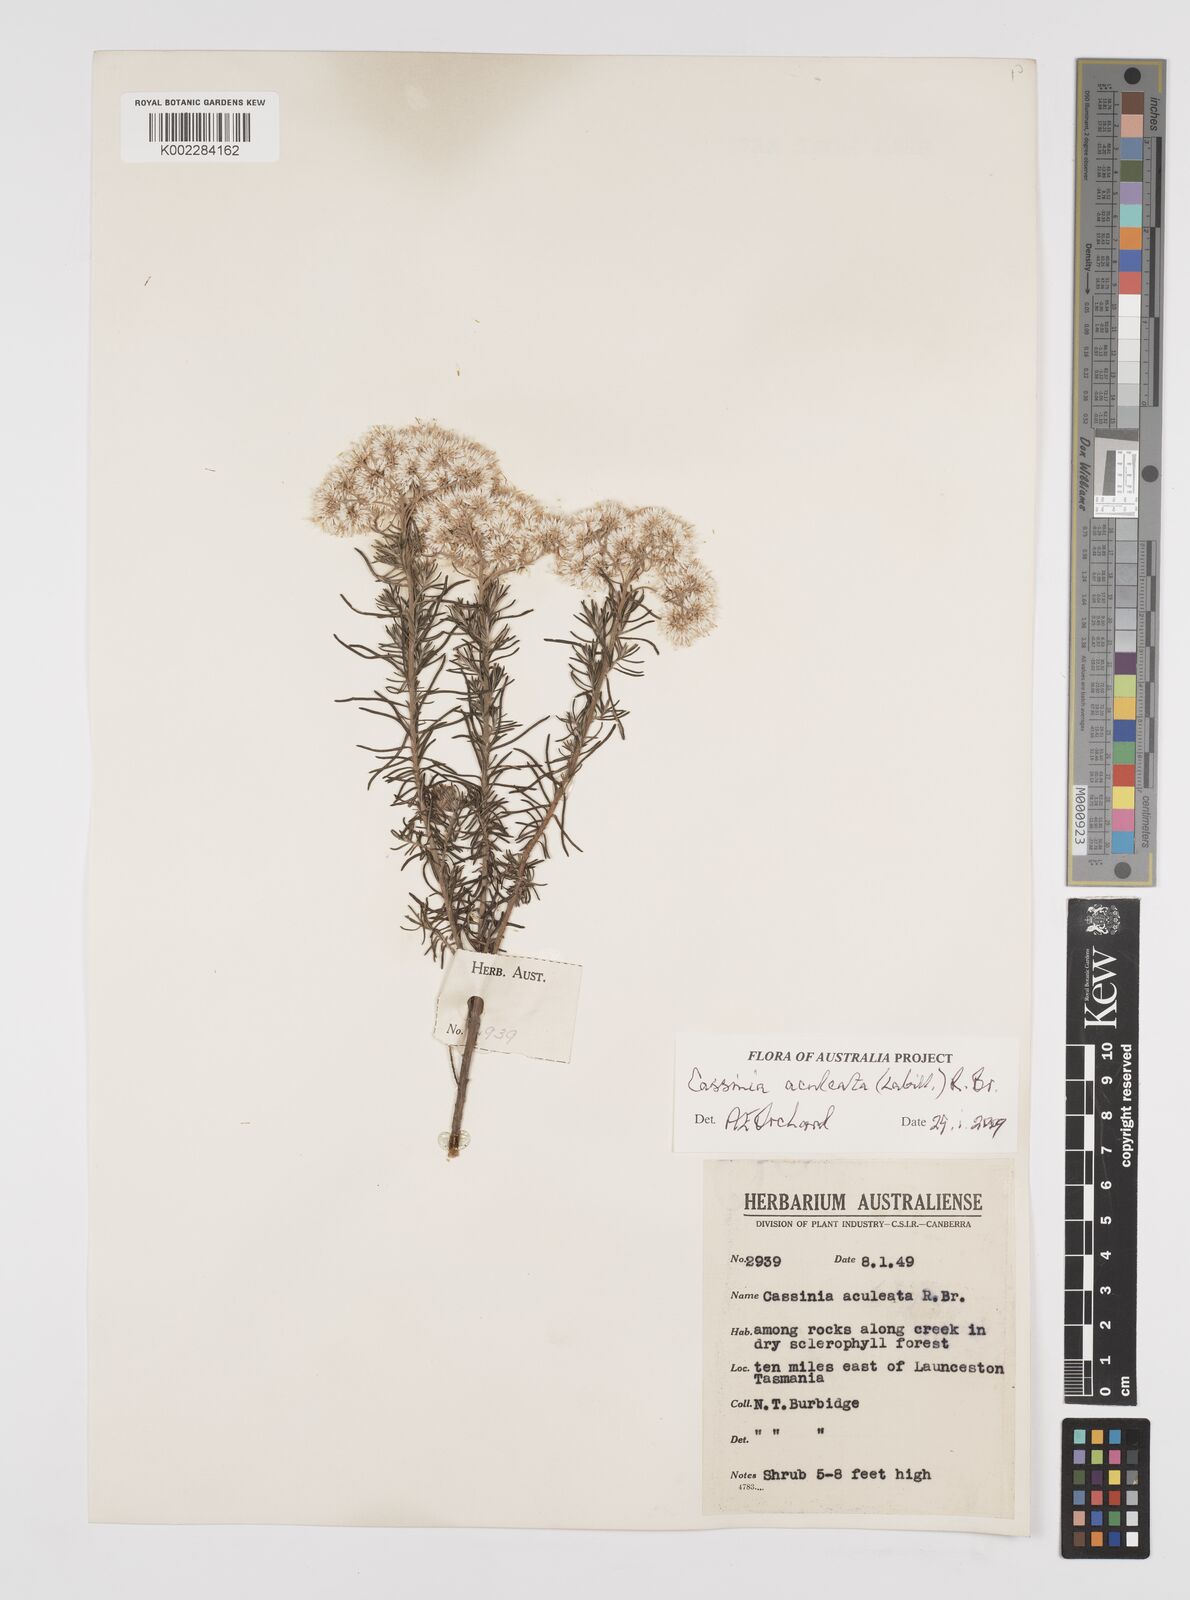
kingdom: Plantae
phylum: Tracheophyta
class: Magnoliopsida
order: Asterales
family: Asteraceae
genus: Cassinia
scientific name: Cassinia aculeata
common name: Australian tauhinu
